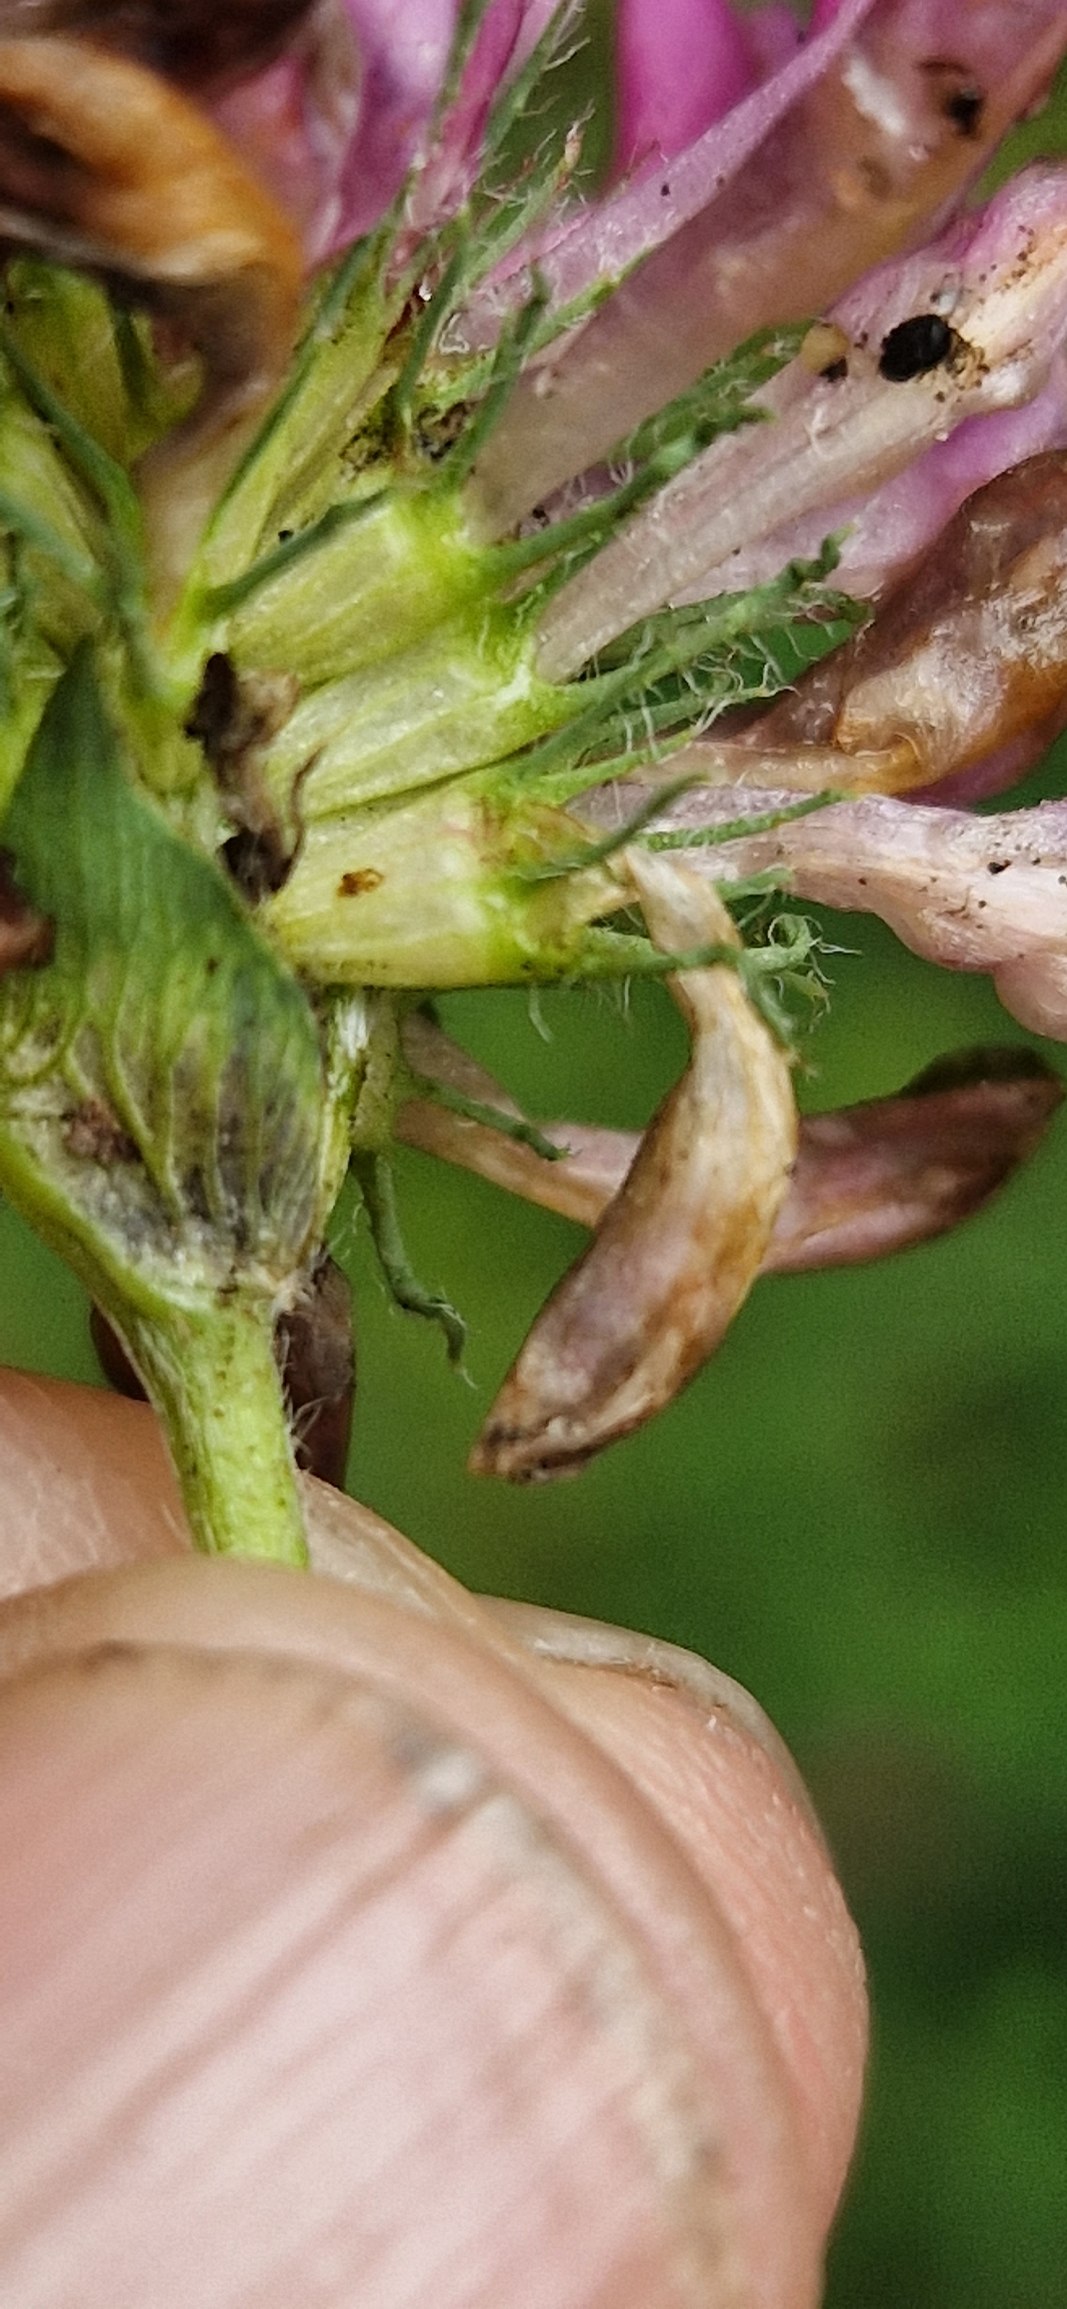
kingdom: Plantae
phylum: Tracheophyta
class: Magnoliopsida
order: Fabales
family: Fabaceae
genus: Trifolium
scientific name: Trifolium medium
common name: Bugtet kløver
